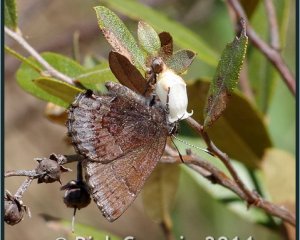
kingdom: Animalia
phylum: Arthropoda
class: Insecta
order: Lepidoptera
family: Lycaenidae
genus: Callophrys
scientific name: Callophrys polios
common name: Hoary Elfin
